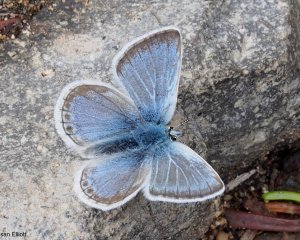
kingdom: Animalia
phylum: Arthropoda
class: Insecta
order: Lepidoptera
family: Lycaenidae
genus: Icaricia
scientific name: Icaricia icarioides
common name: Boisduval's Blue
